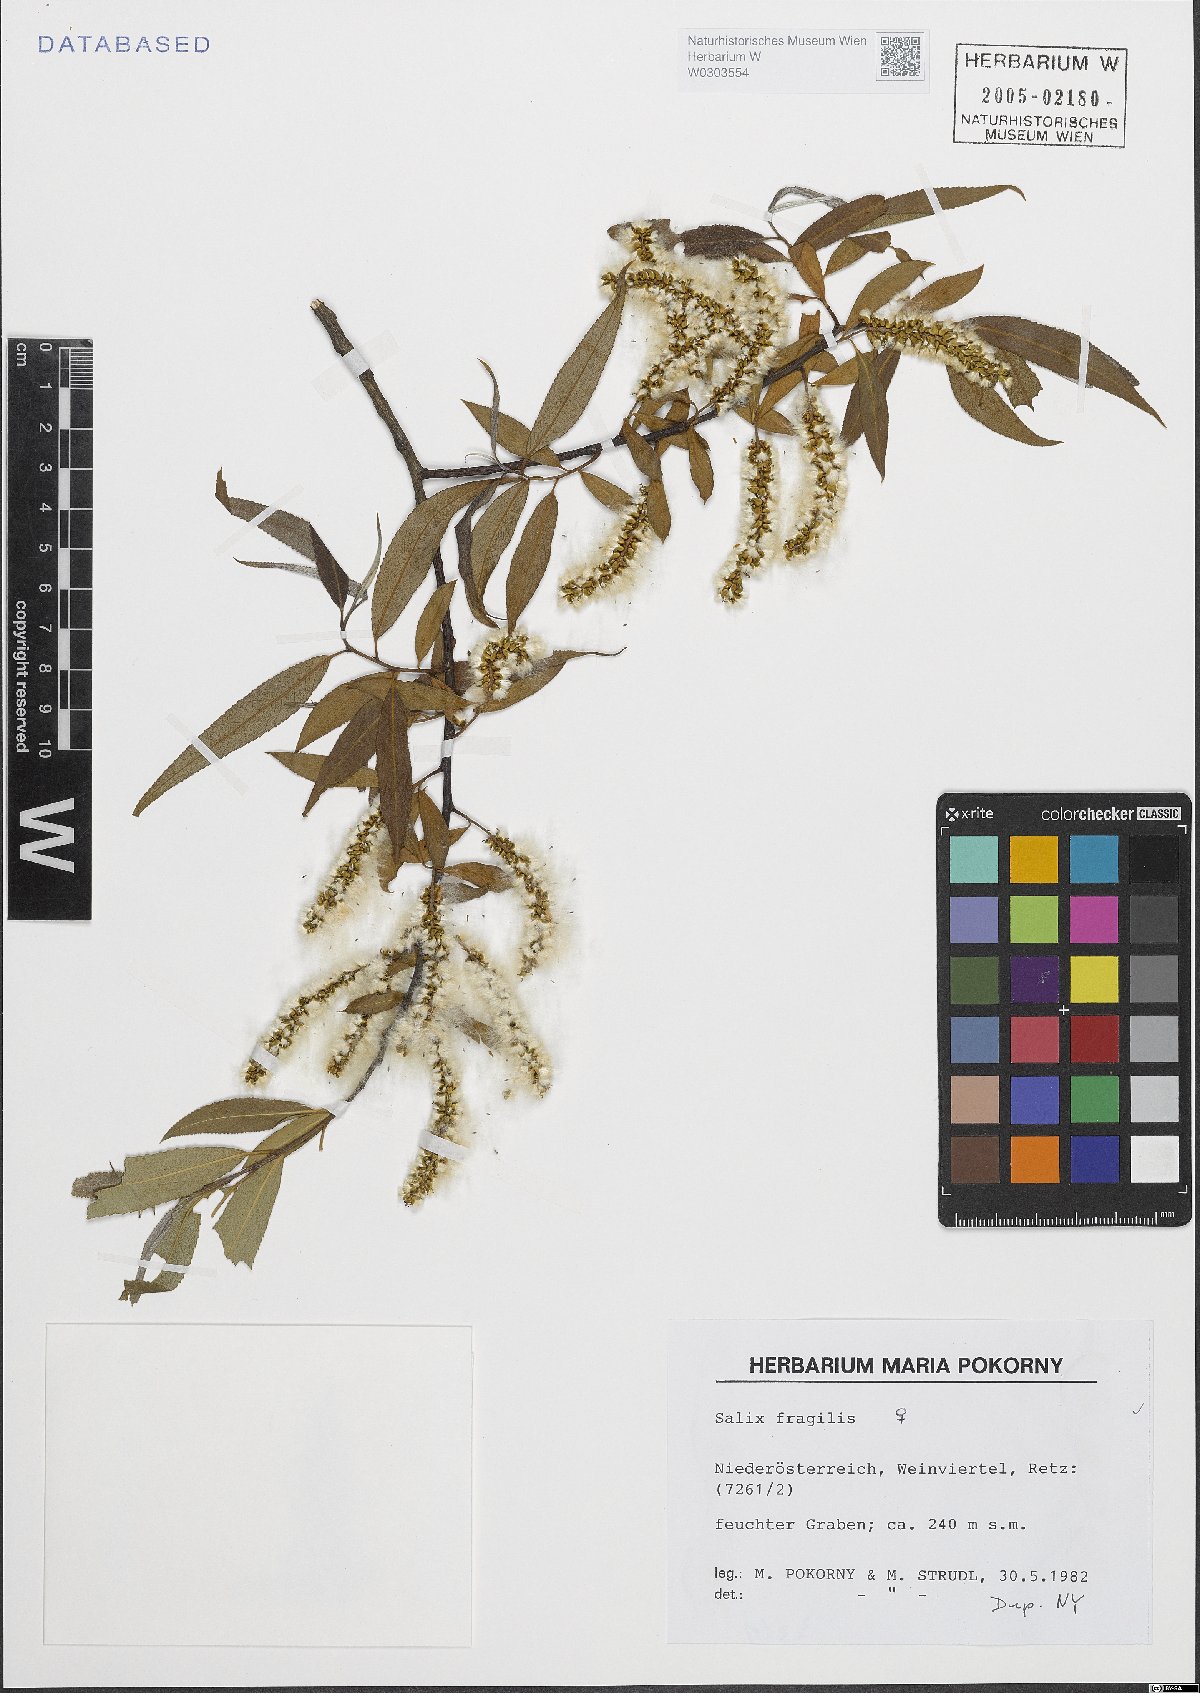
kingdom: Plantae
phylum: Tracheophyta
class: Magnoliopsida
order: Malpighiales
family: Salicaceae
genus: Salix
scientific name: Salix fragilis
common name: Crack willow
